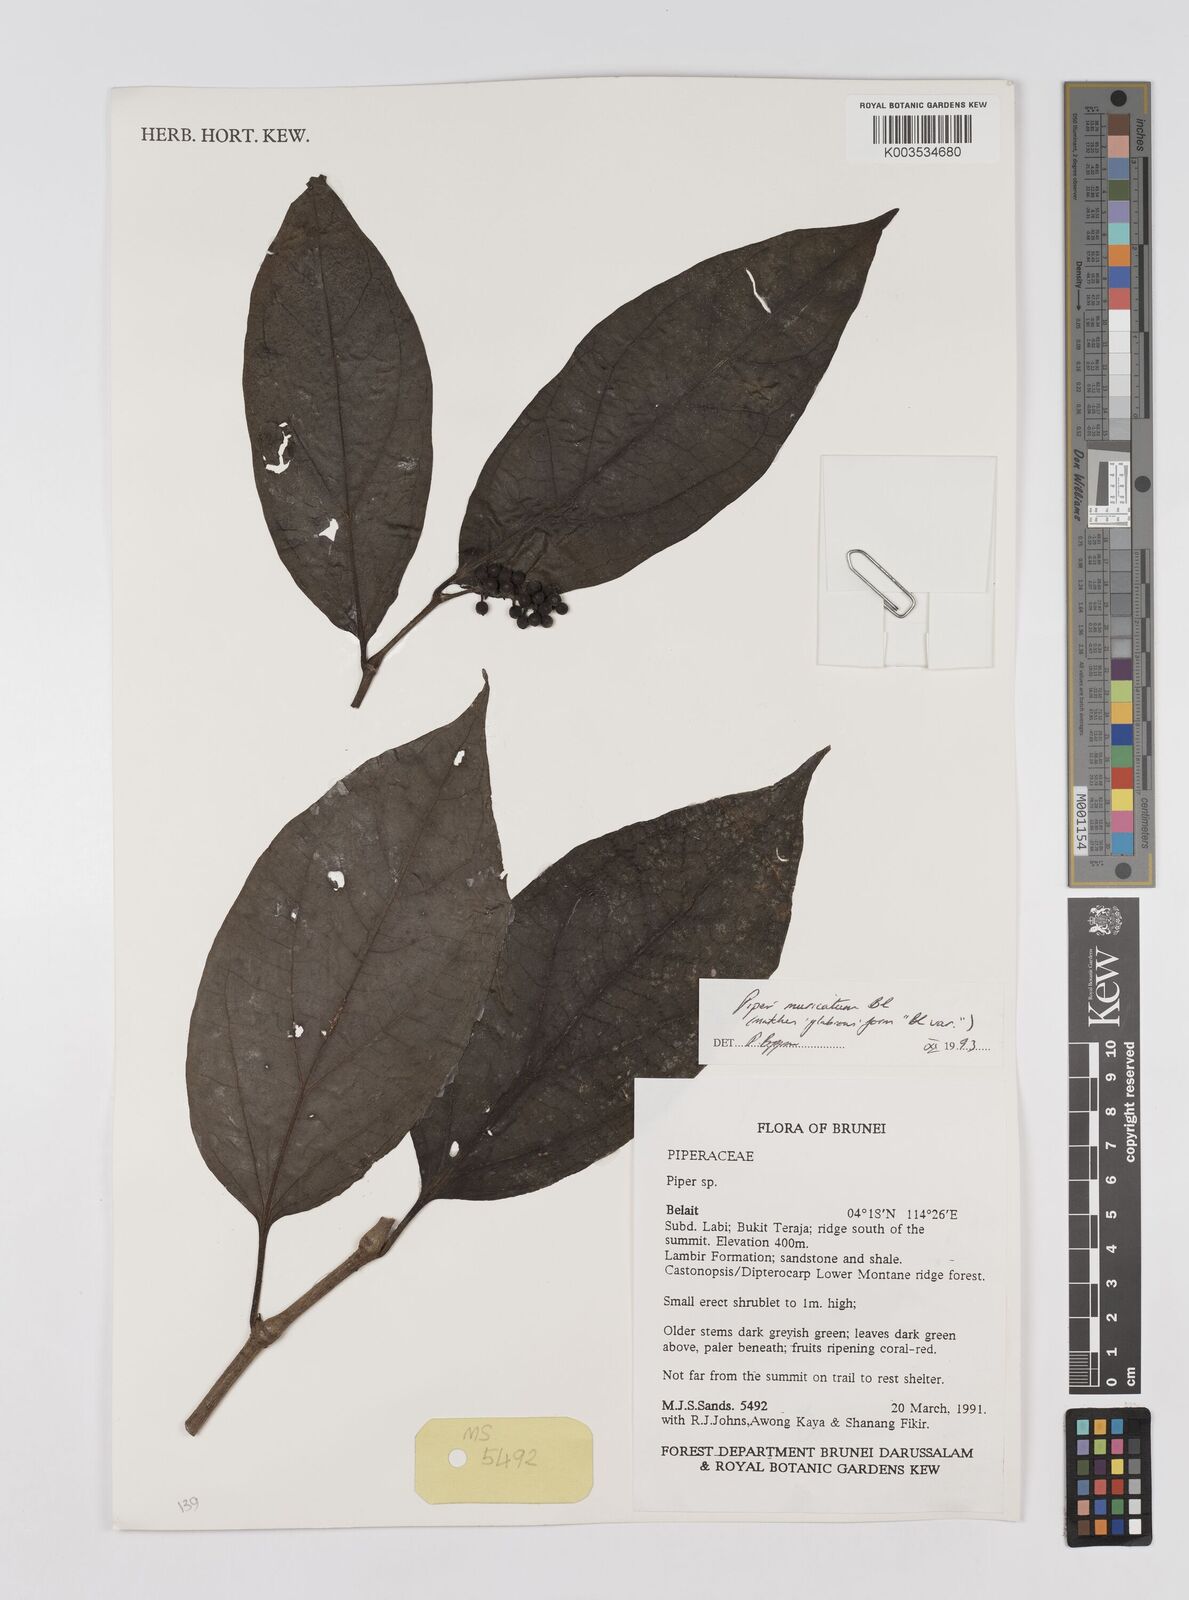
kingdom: Plantae
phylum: Tracheophyta
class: Magnoliopsida
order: Piperales
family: Piperaceae
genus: Piper
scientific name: Piper muricatum
